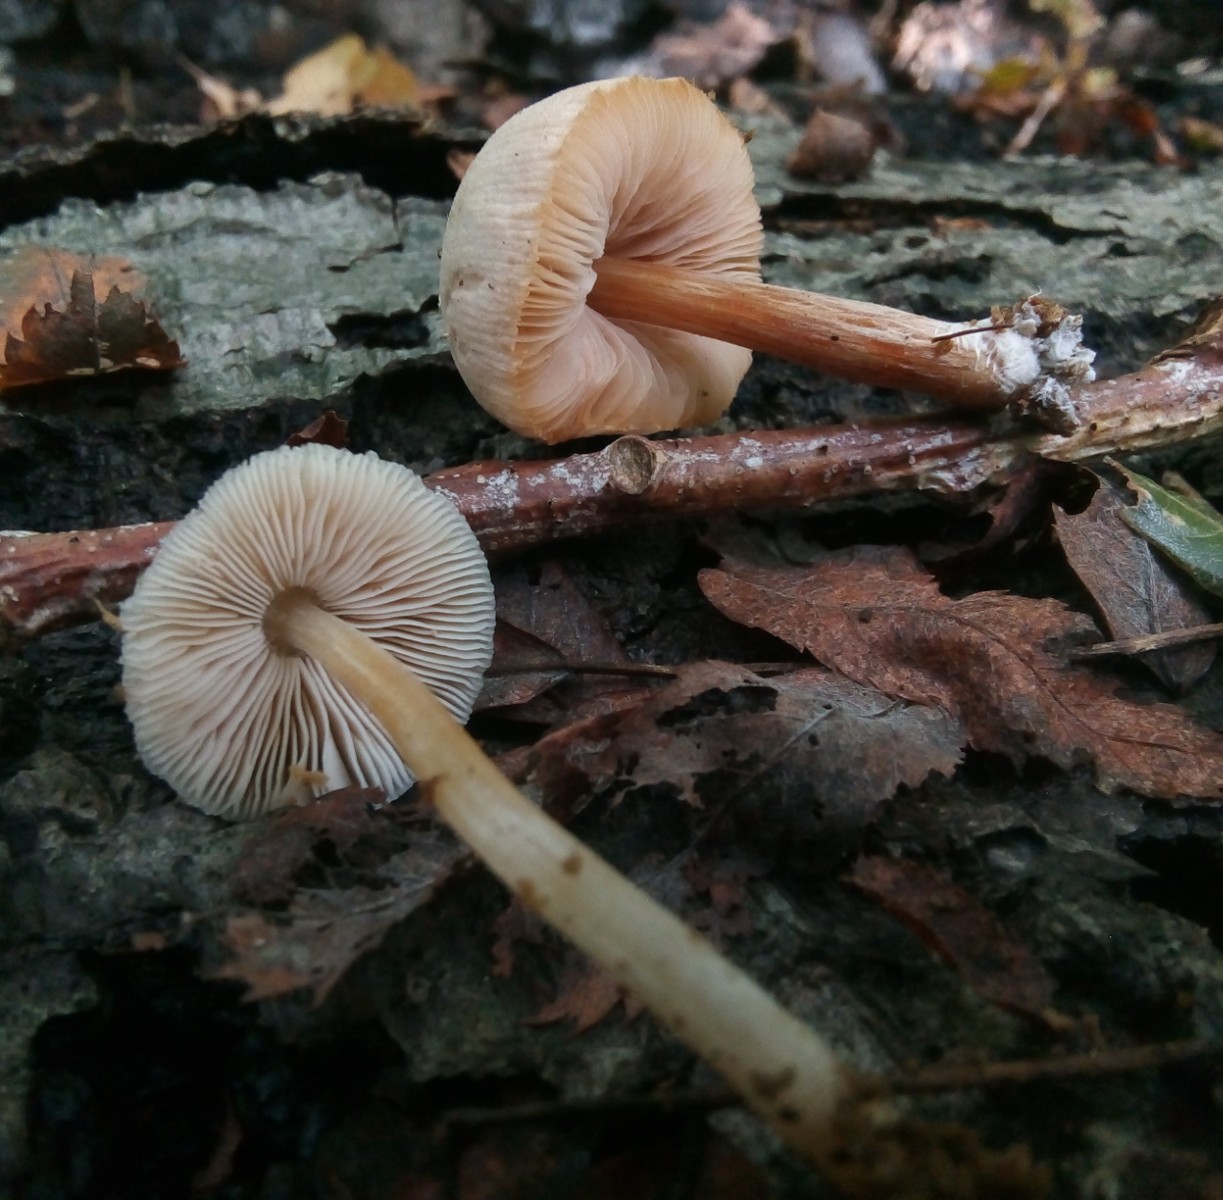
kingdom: Fungi
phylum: Basidiomycota
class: Agaricomycetes
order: Agaricales
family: Pluteaceae
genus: Pluteus
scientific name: Pluteus semibulbosus
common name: knoldet skærmhat
